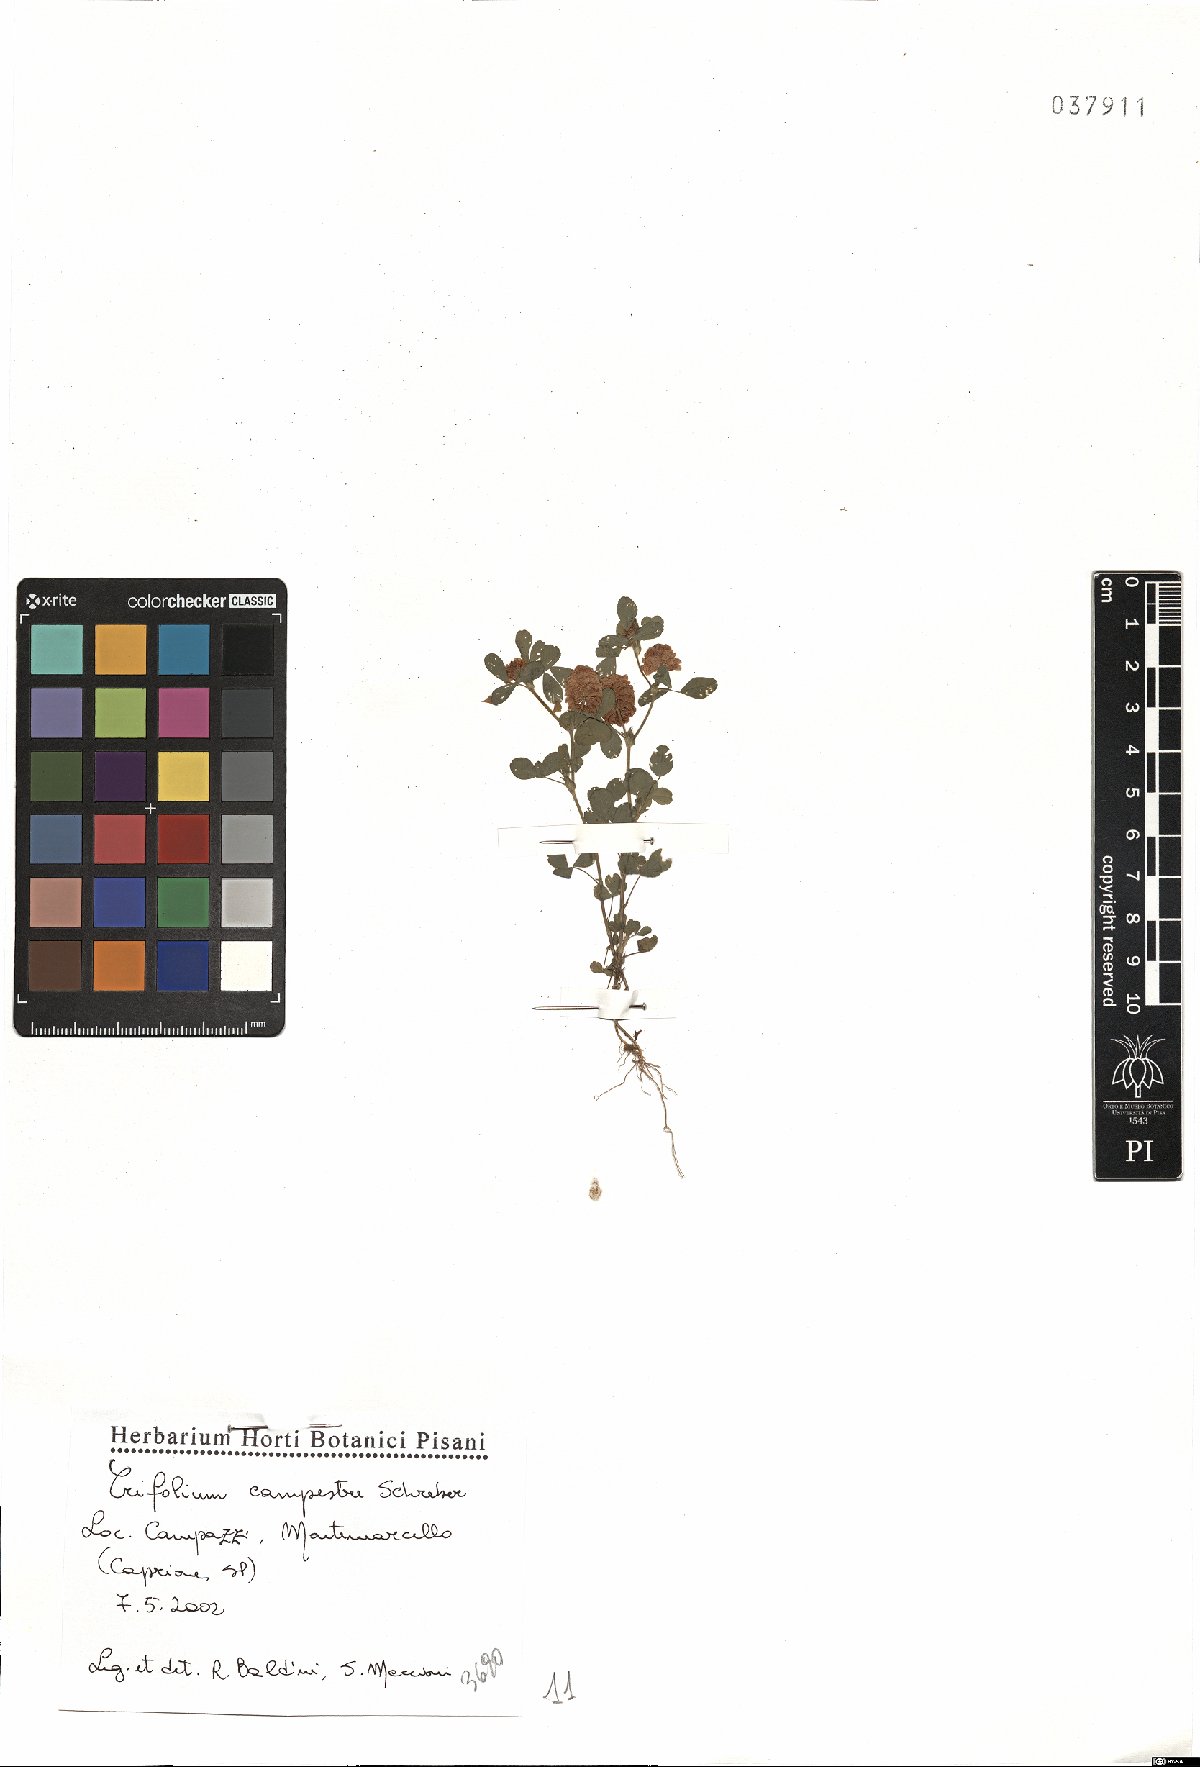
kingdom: Plantae
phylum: Tracheophyta
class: Magnoliopsida
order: Fabales
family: Fabaceae
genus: Trifolium
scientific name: Trifolium campestre
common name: Field clover
